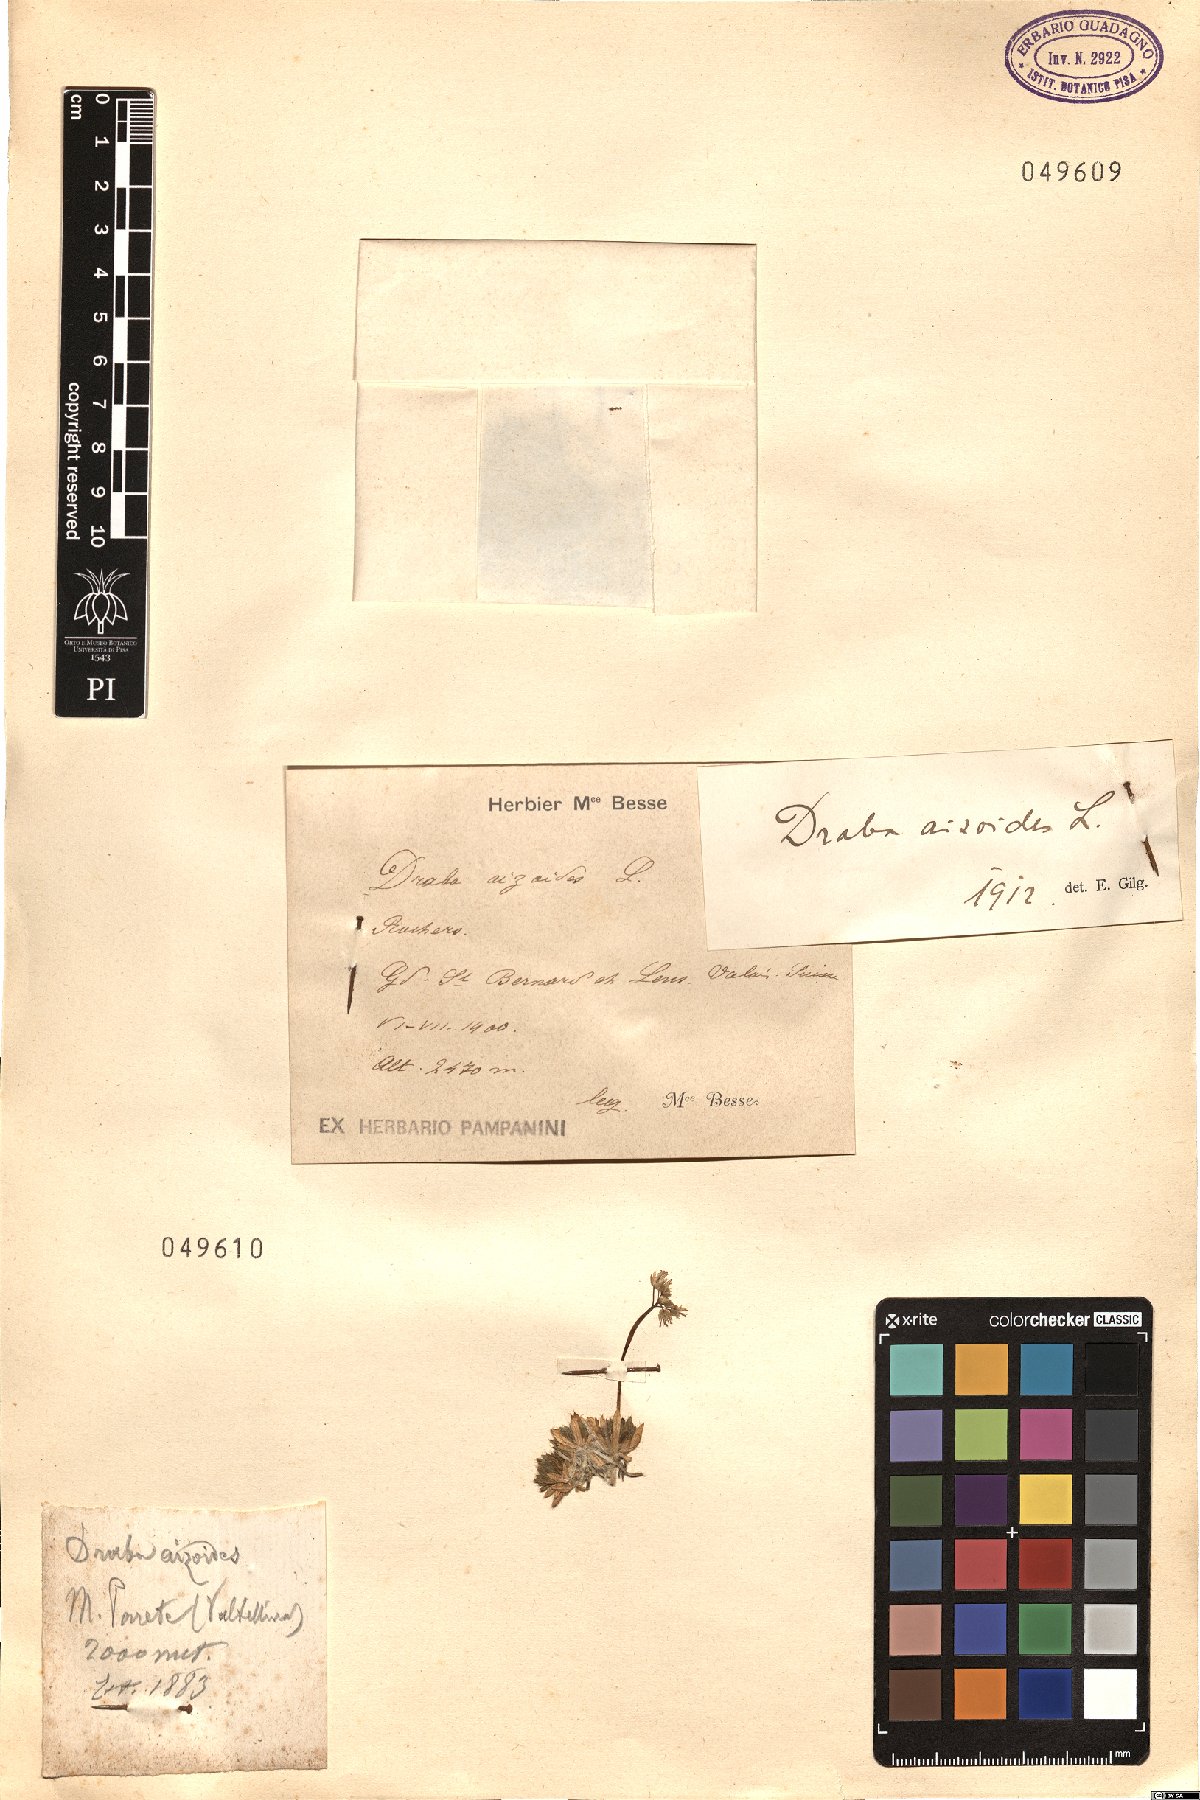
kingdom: Plantae
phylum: Tracheophyta
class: Magnoliopsida
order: Brassicales
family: Brassicaceae
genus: Draba
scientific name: Draba aizoides
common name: Yellow whitlowgrass
